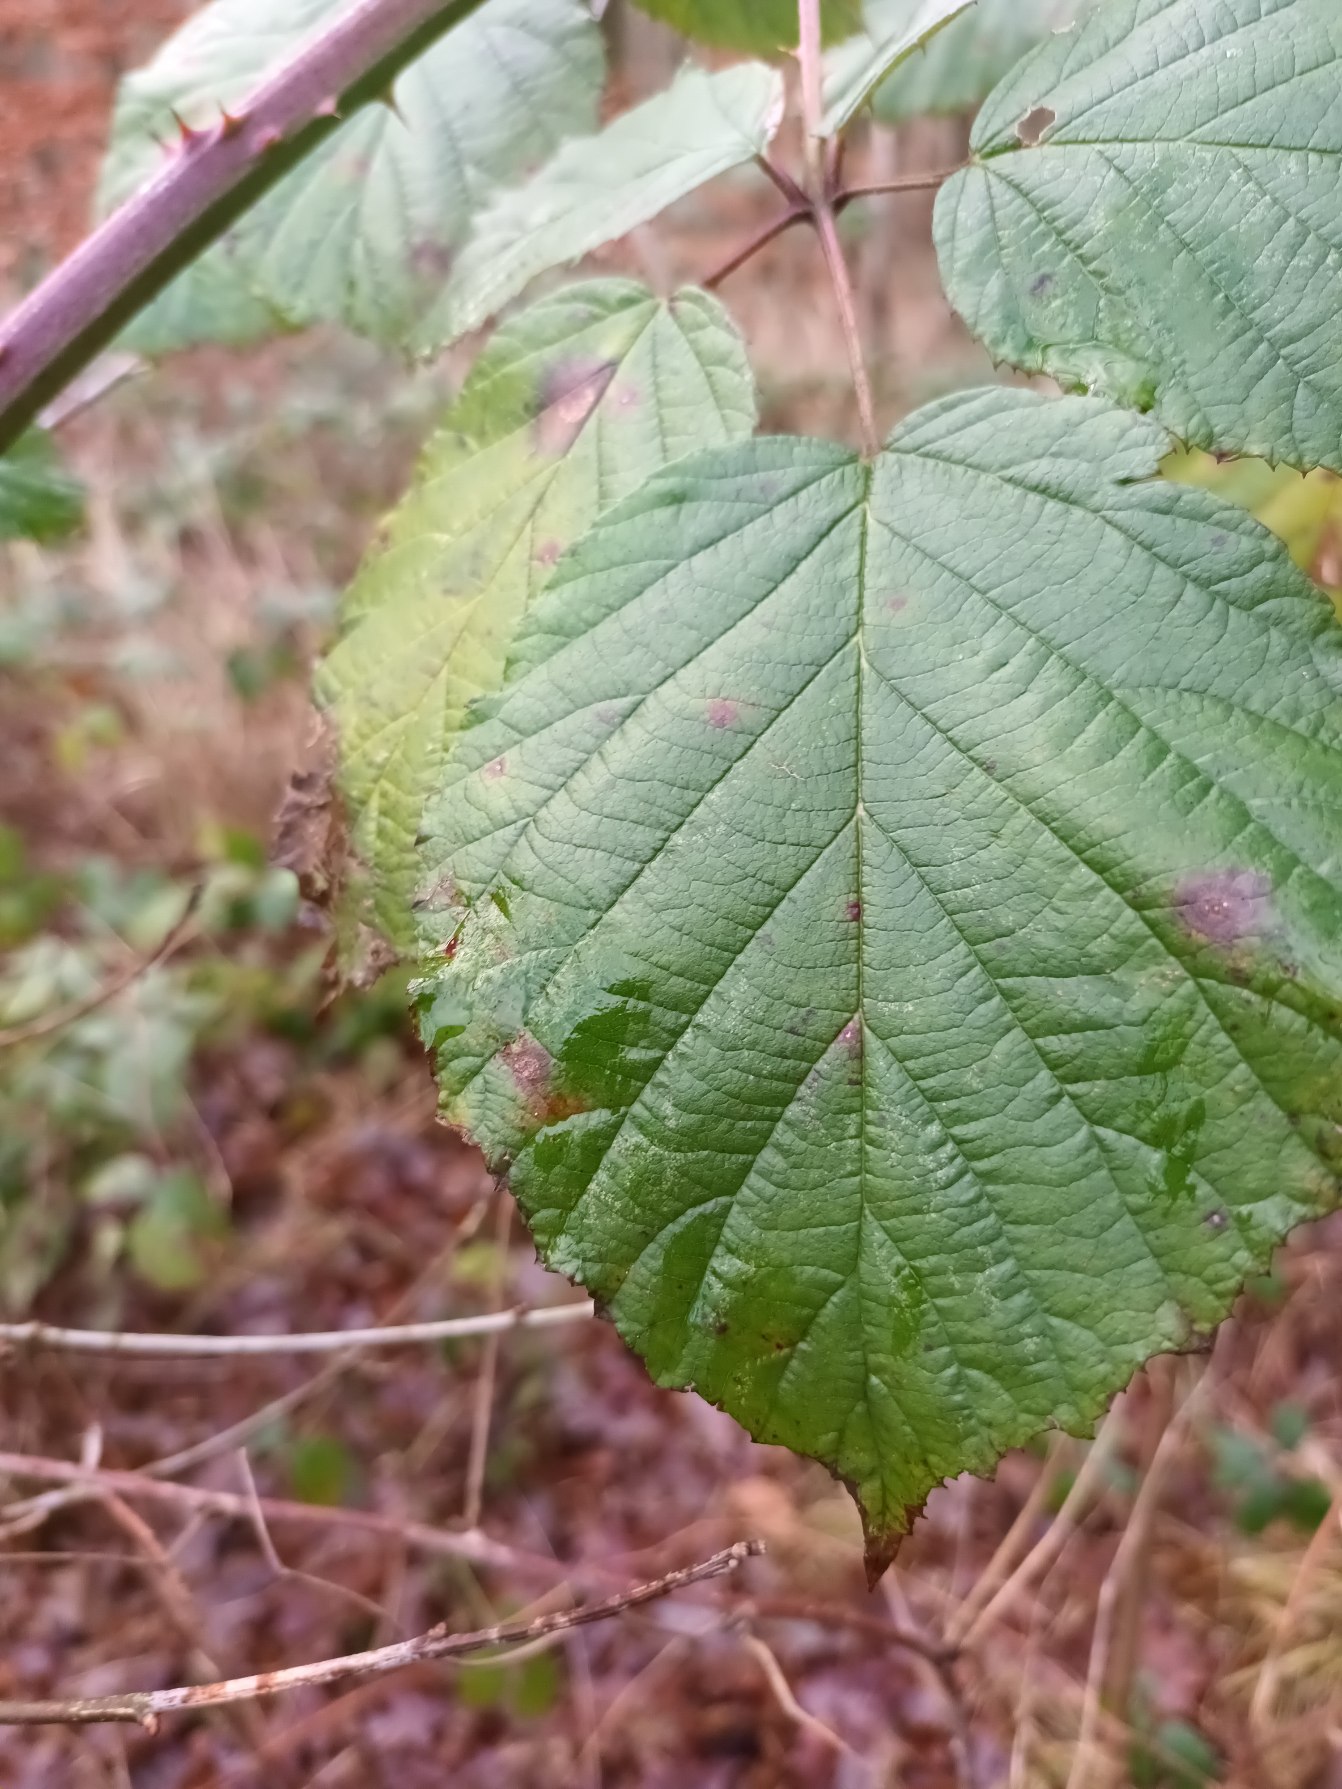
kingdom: Plantae
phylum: Tracheophyta
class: Magnoliopsida
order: Rosales
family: Rosaceae
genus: Rubus
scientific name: Rubus cardiophyllus
